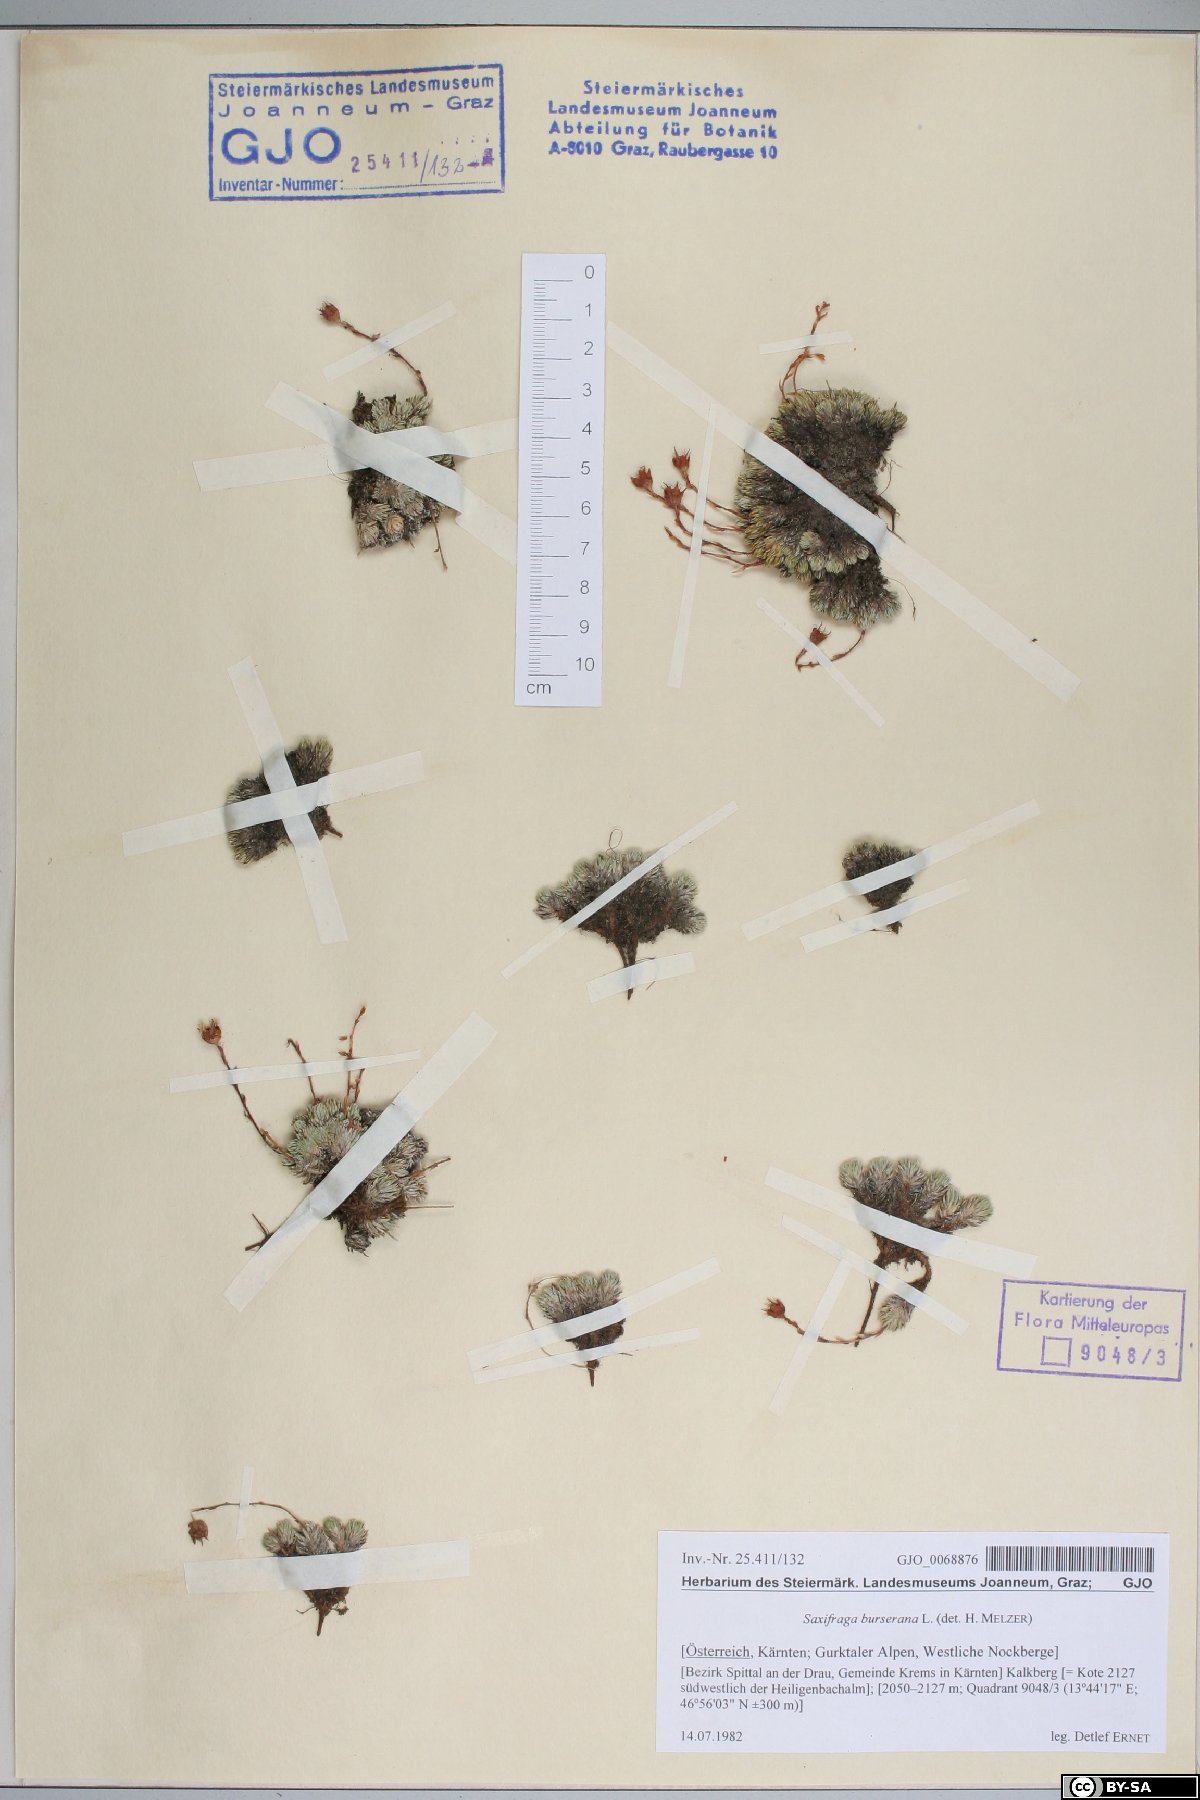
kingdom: Plantae
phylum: Tracheophyta
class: Magnoliopsida
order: Saxifragales
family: Saxifragaceae
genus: Saxifraga
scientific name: Saxifraga burseriana
